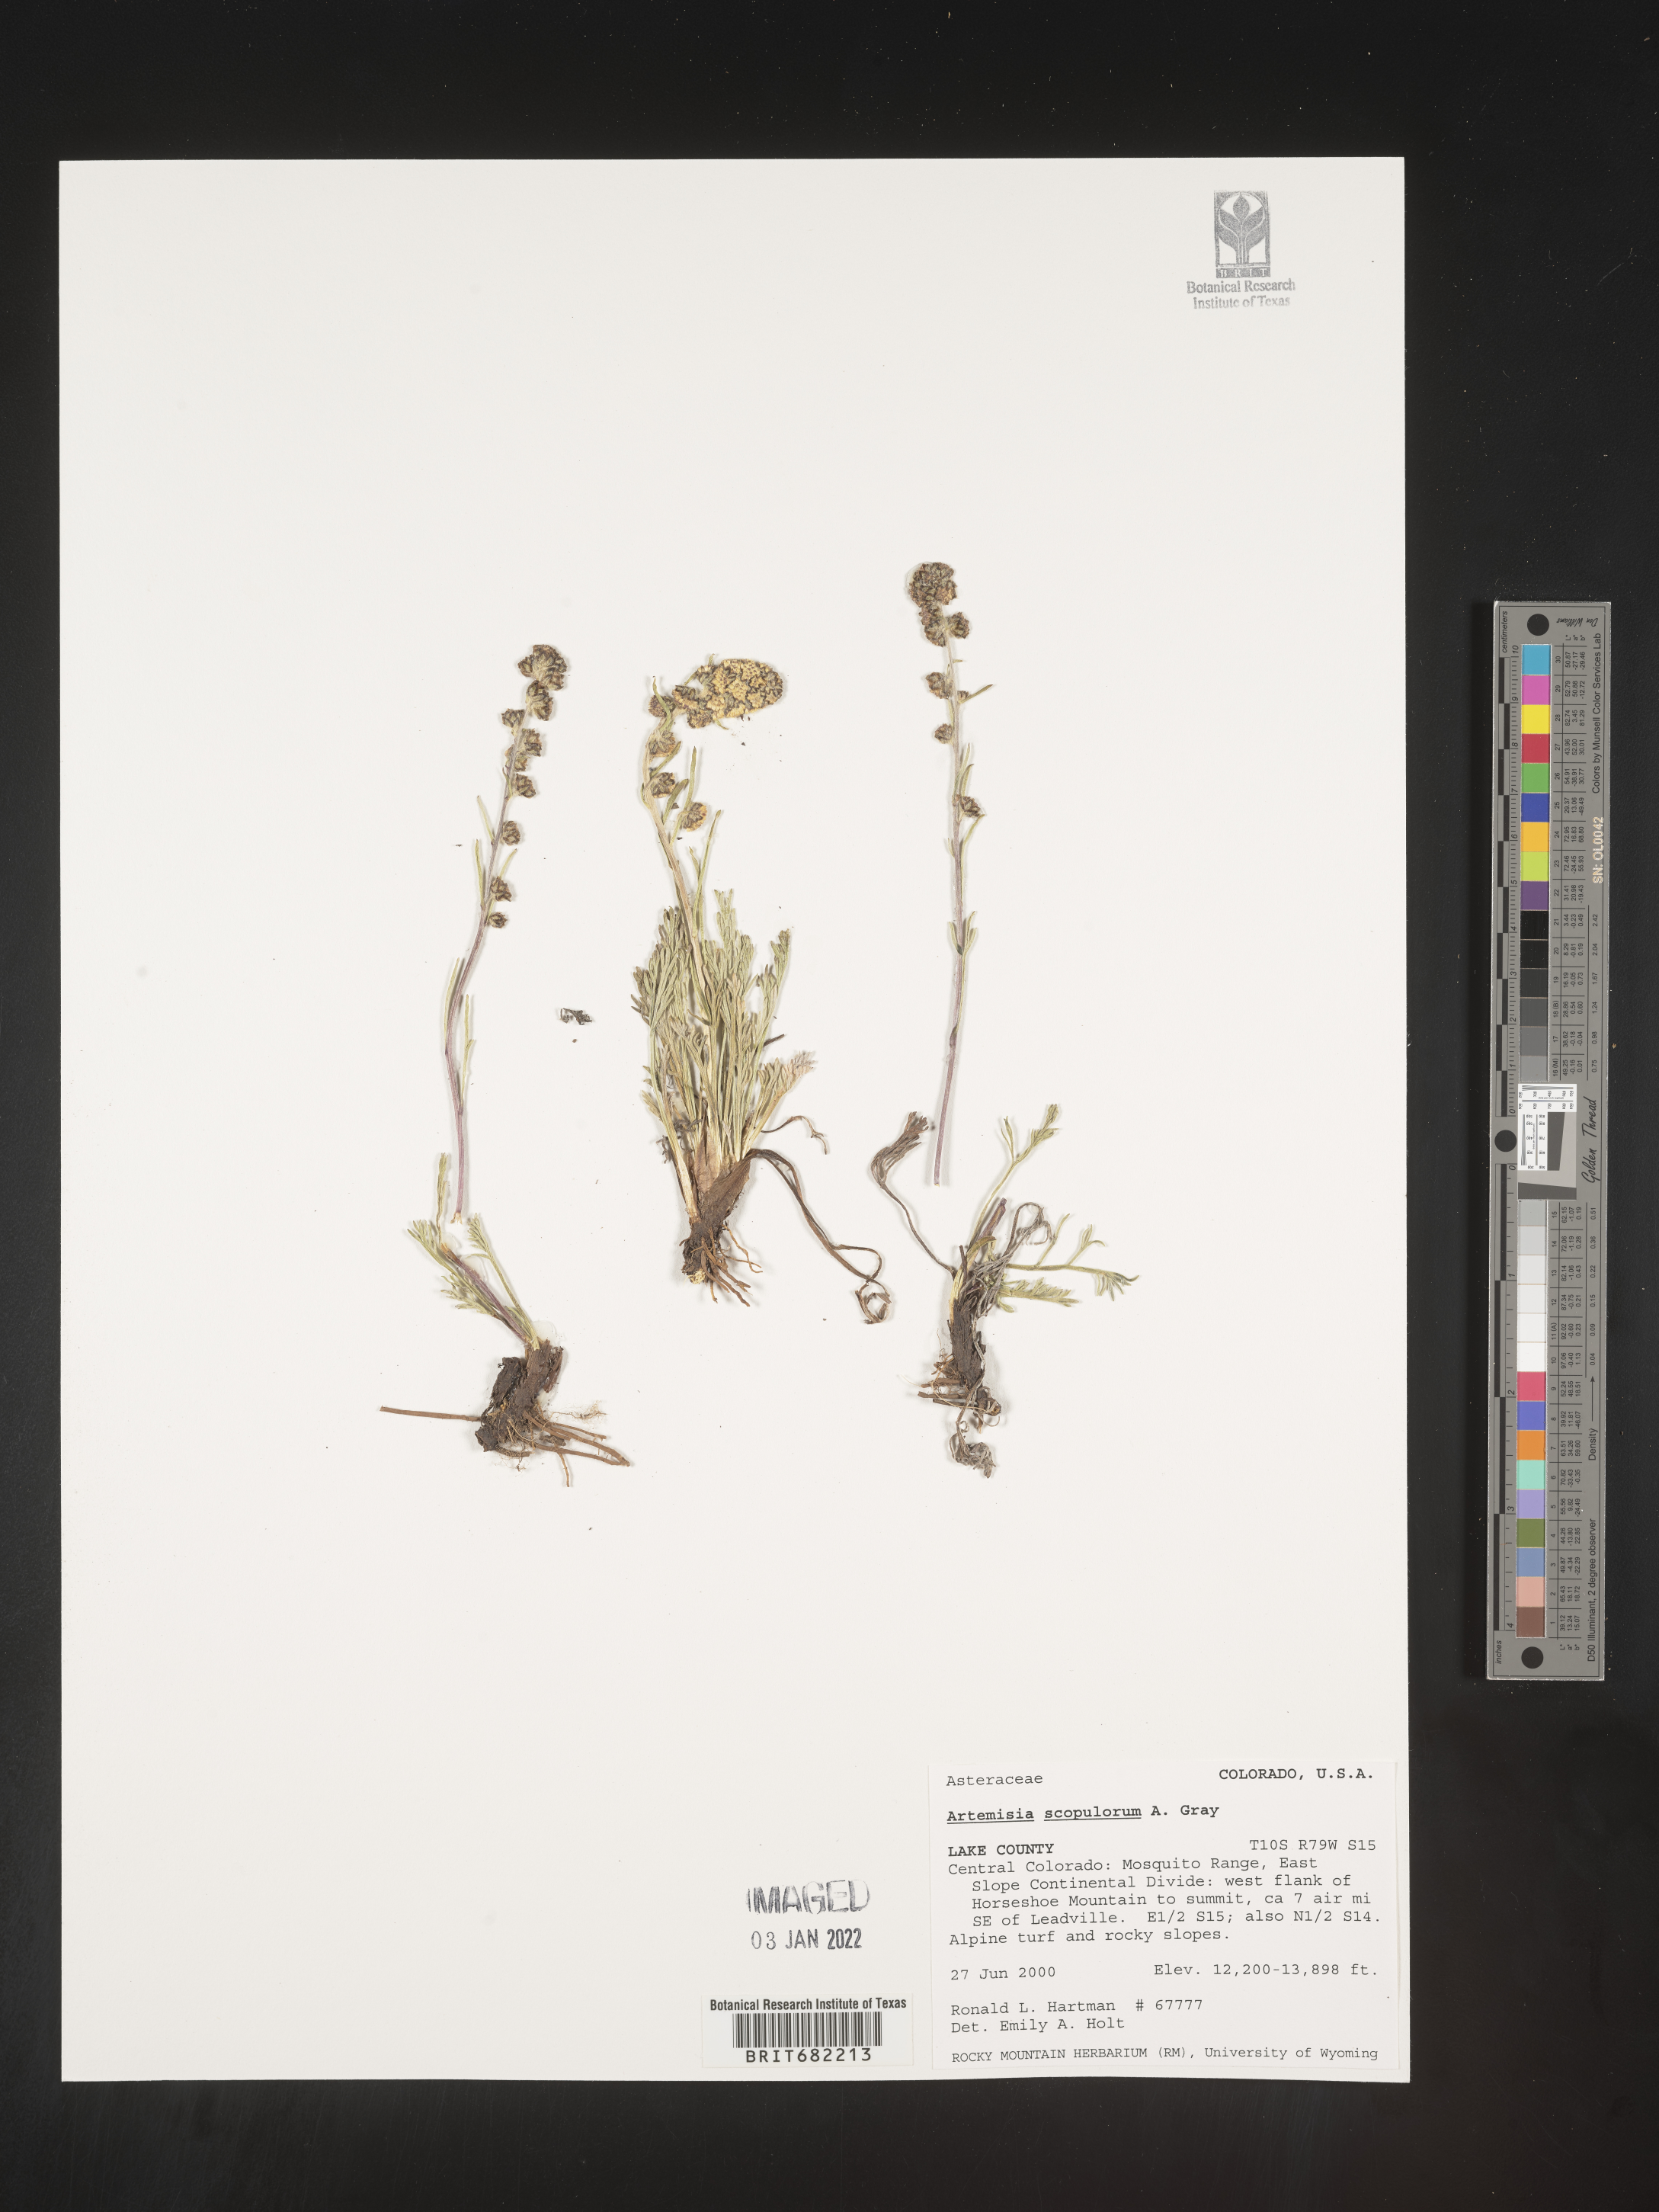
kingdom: Plantae
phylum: Tracheophyta
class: Magnoliopsida
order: Asterales
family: Asteraceae
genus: Artemisia
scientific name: Artemisia scopulorum
